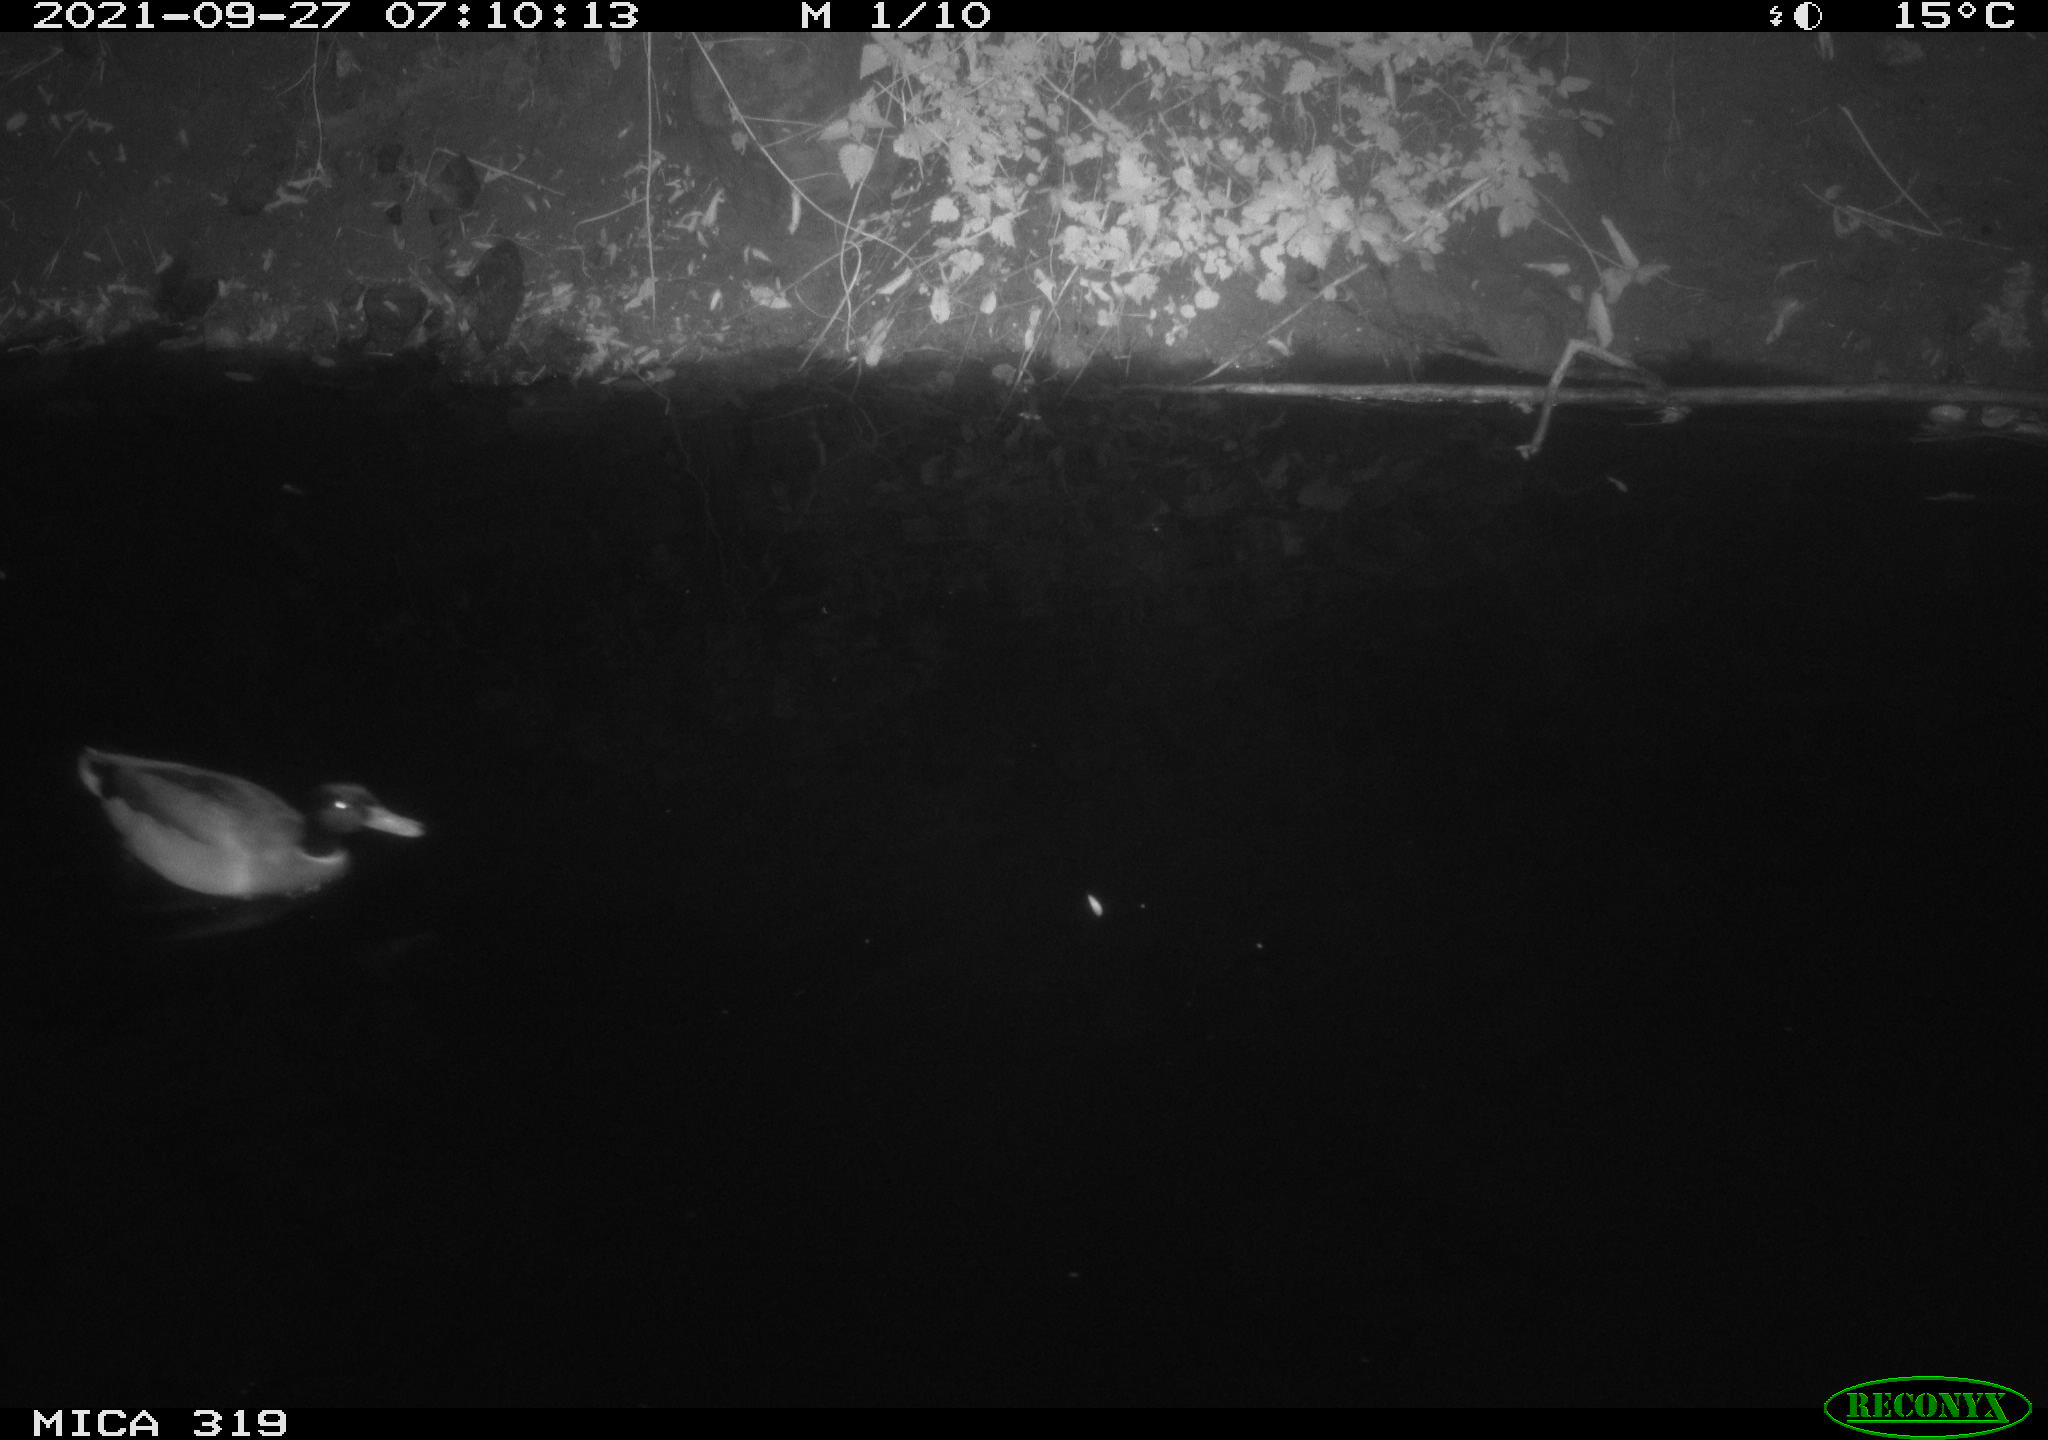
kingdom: Animalia
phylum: Chordata
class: Aves
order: Anseriformes
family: Anatidae
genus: Anas
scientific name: Anas platyrhynchos
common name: Mallard
